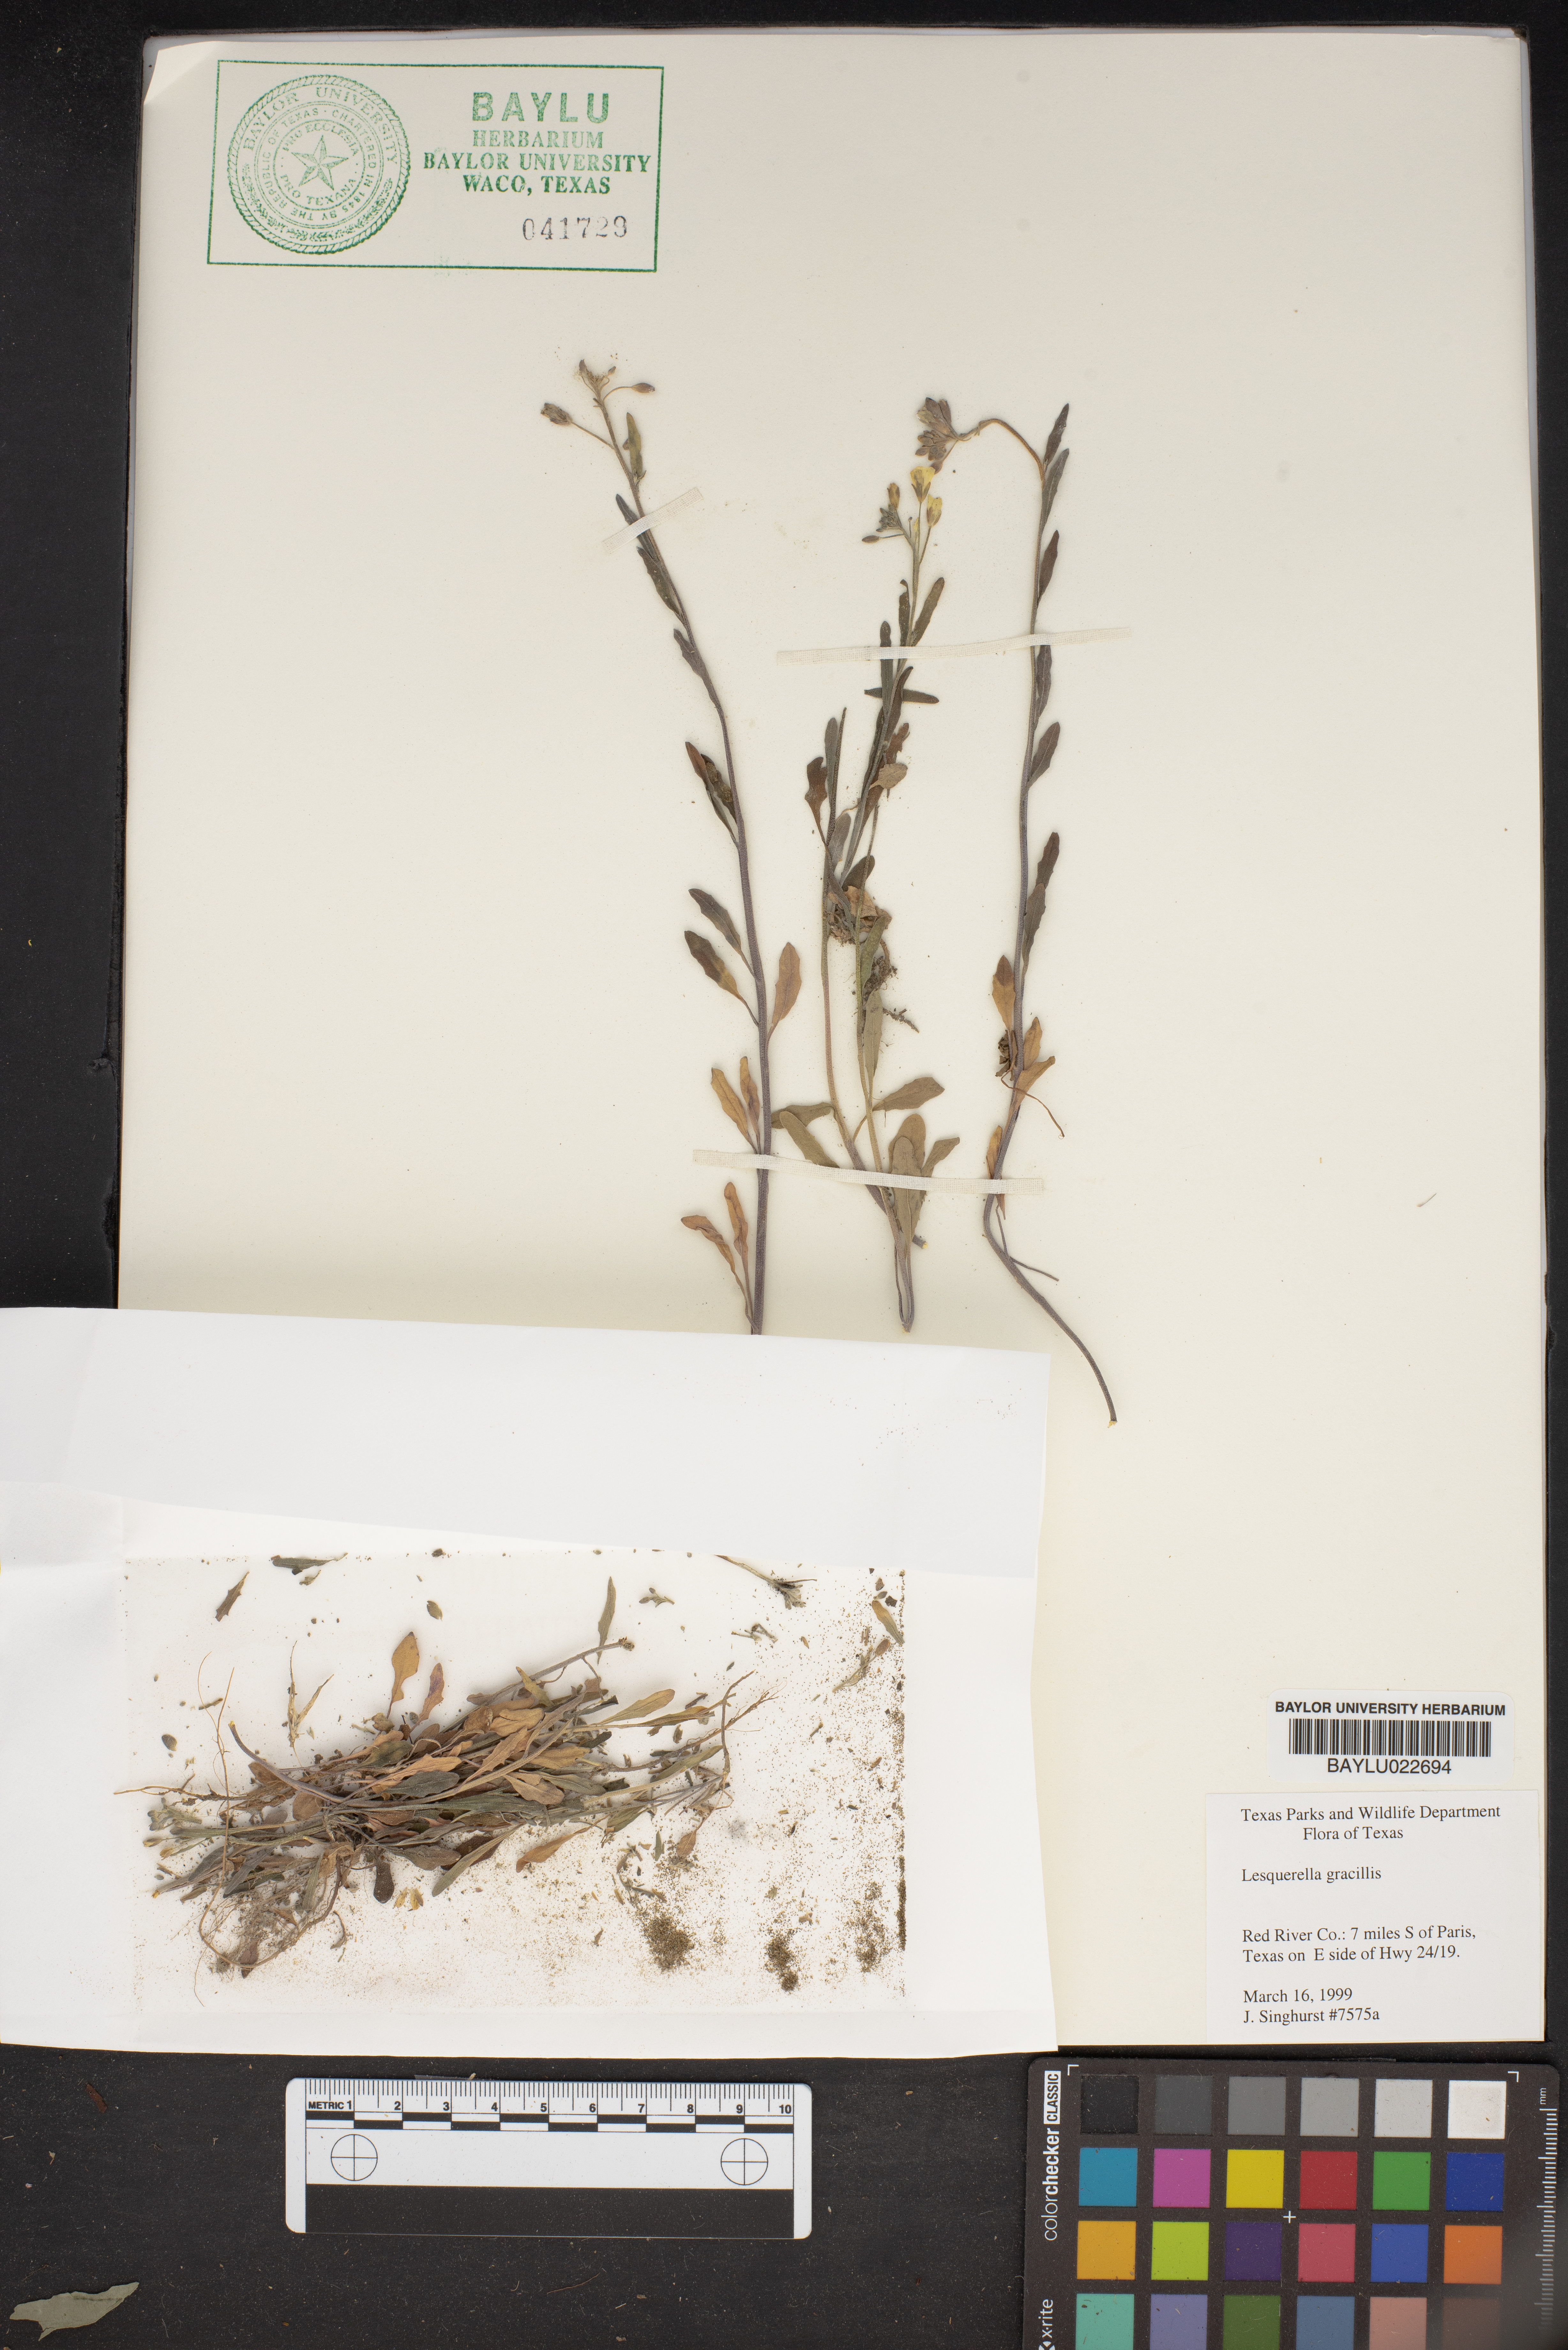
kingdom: Plantae
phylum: Tracheophyta
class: Magnoliopsida
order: Brassicales
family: Brassicaceae
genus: Physaria
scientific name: Physaria gracilis
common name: Spreading bladderpod
